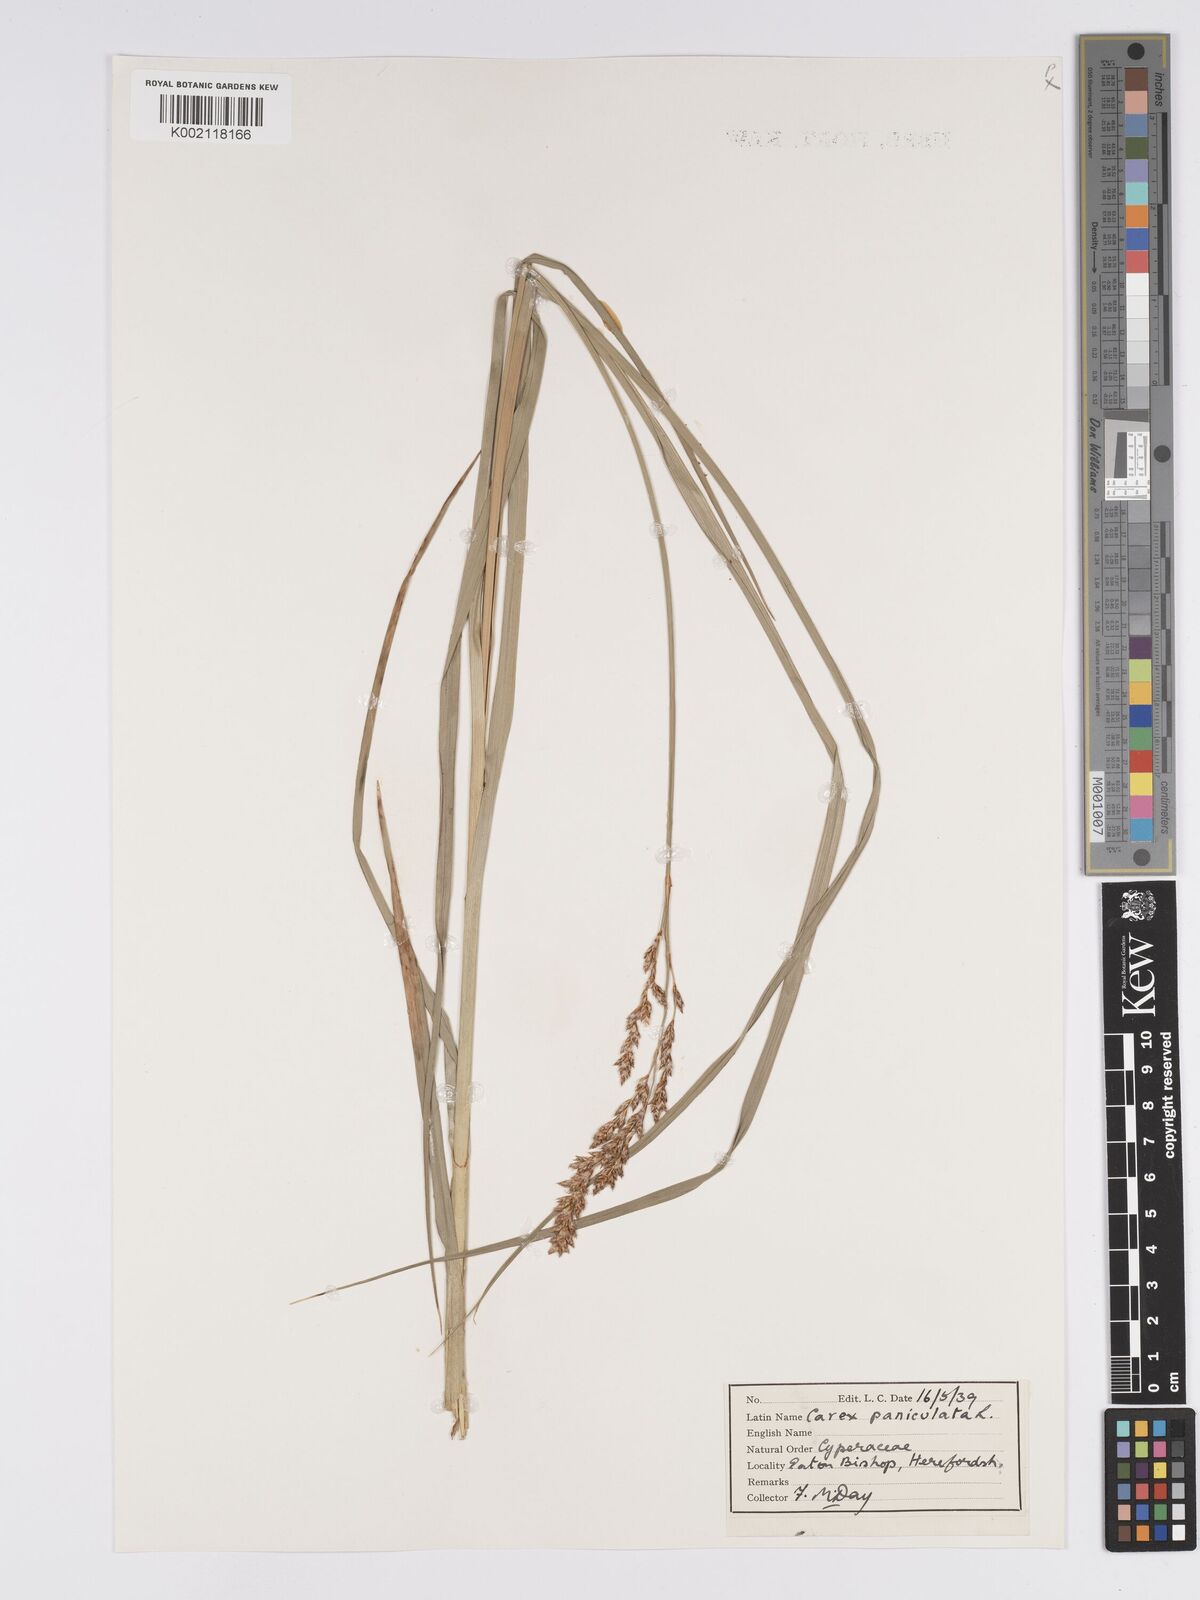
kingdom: Plantae
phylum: Tracheophyta
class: Liliopsida
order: Poales
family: Cyperaceae
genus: Carex
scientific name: Carex paniculata
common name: Greater tussock-sedge
